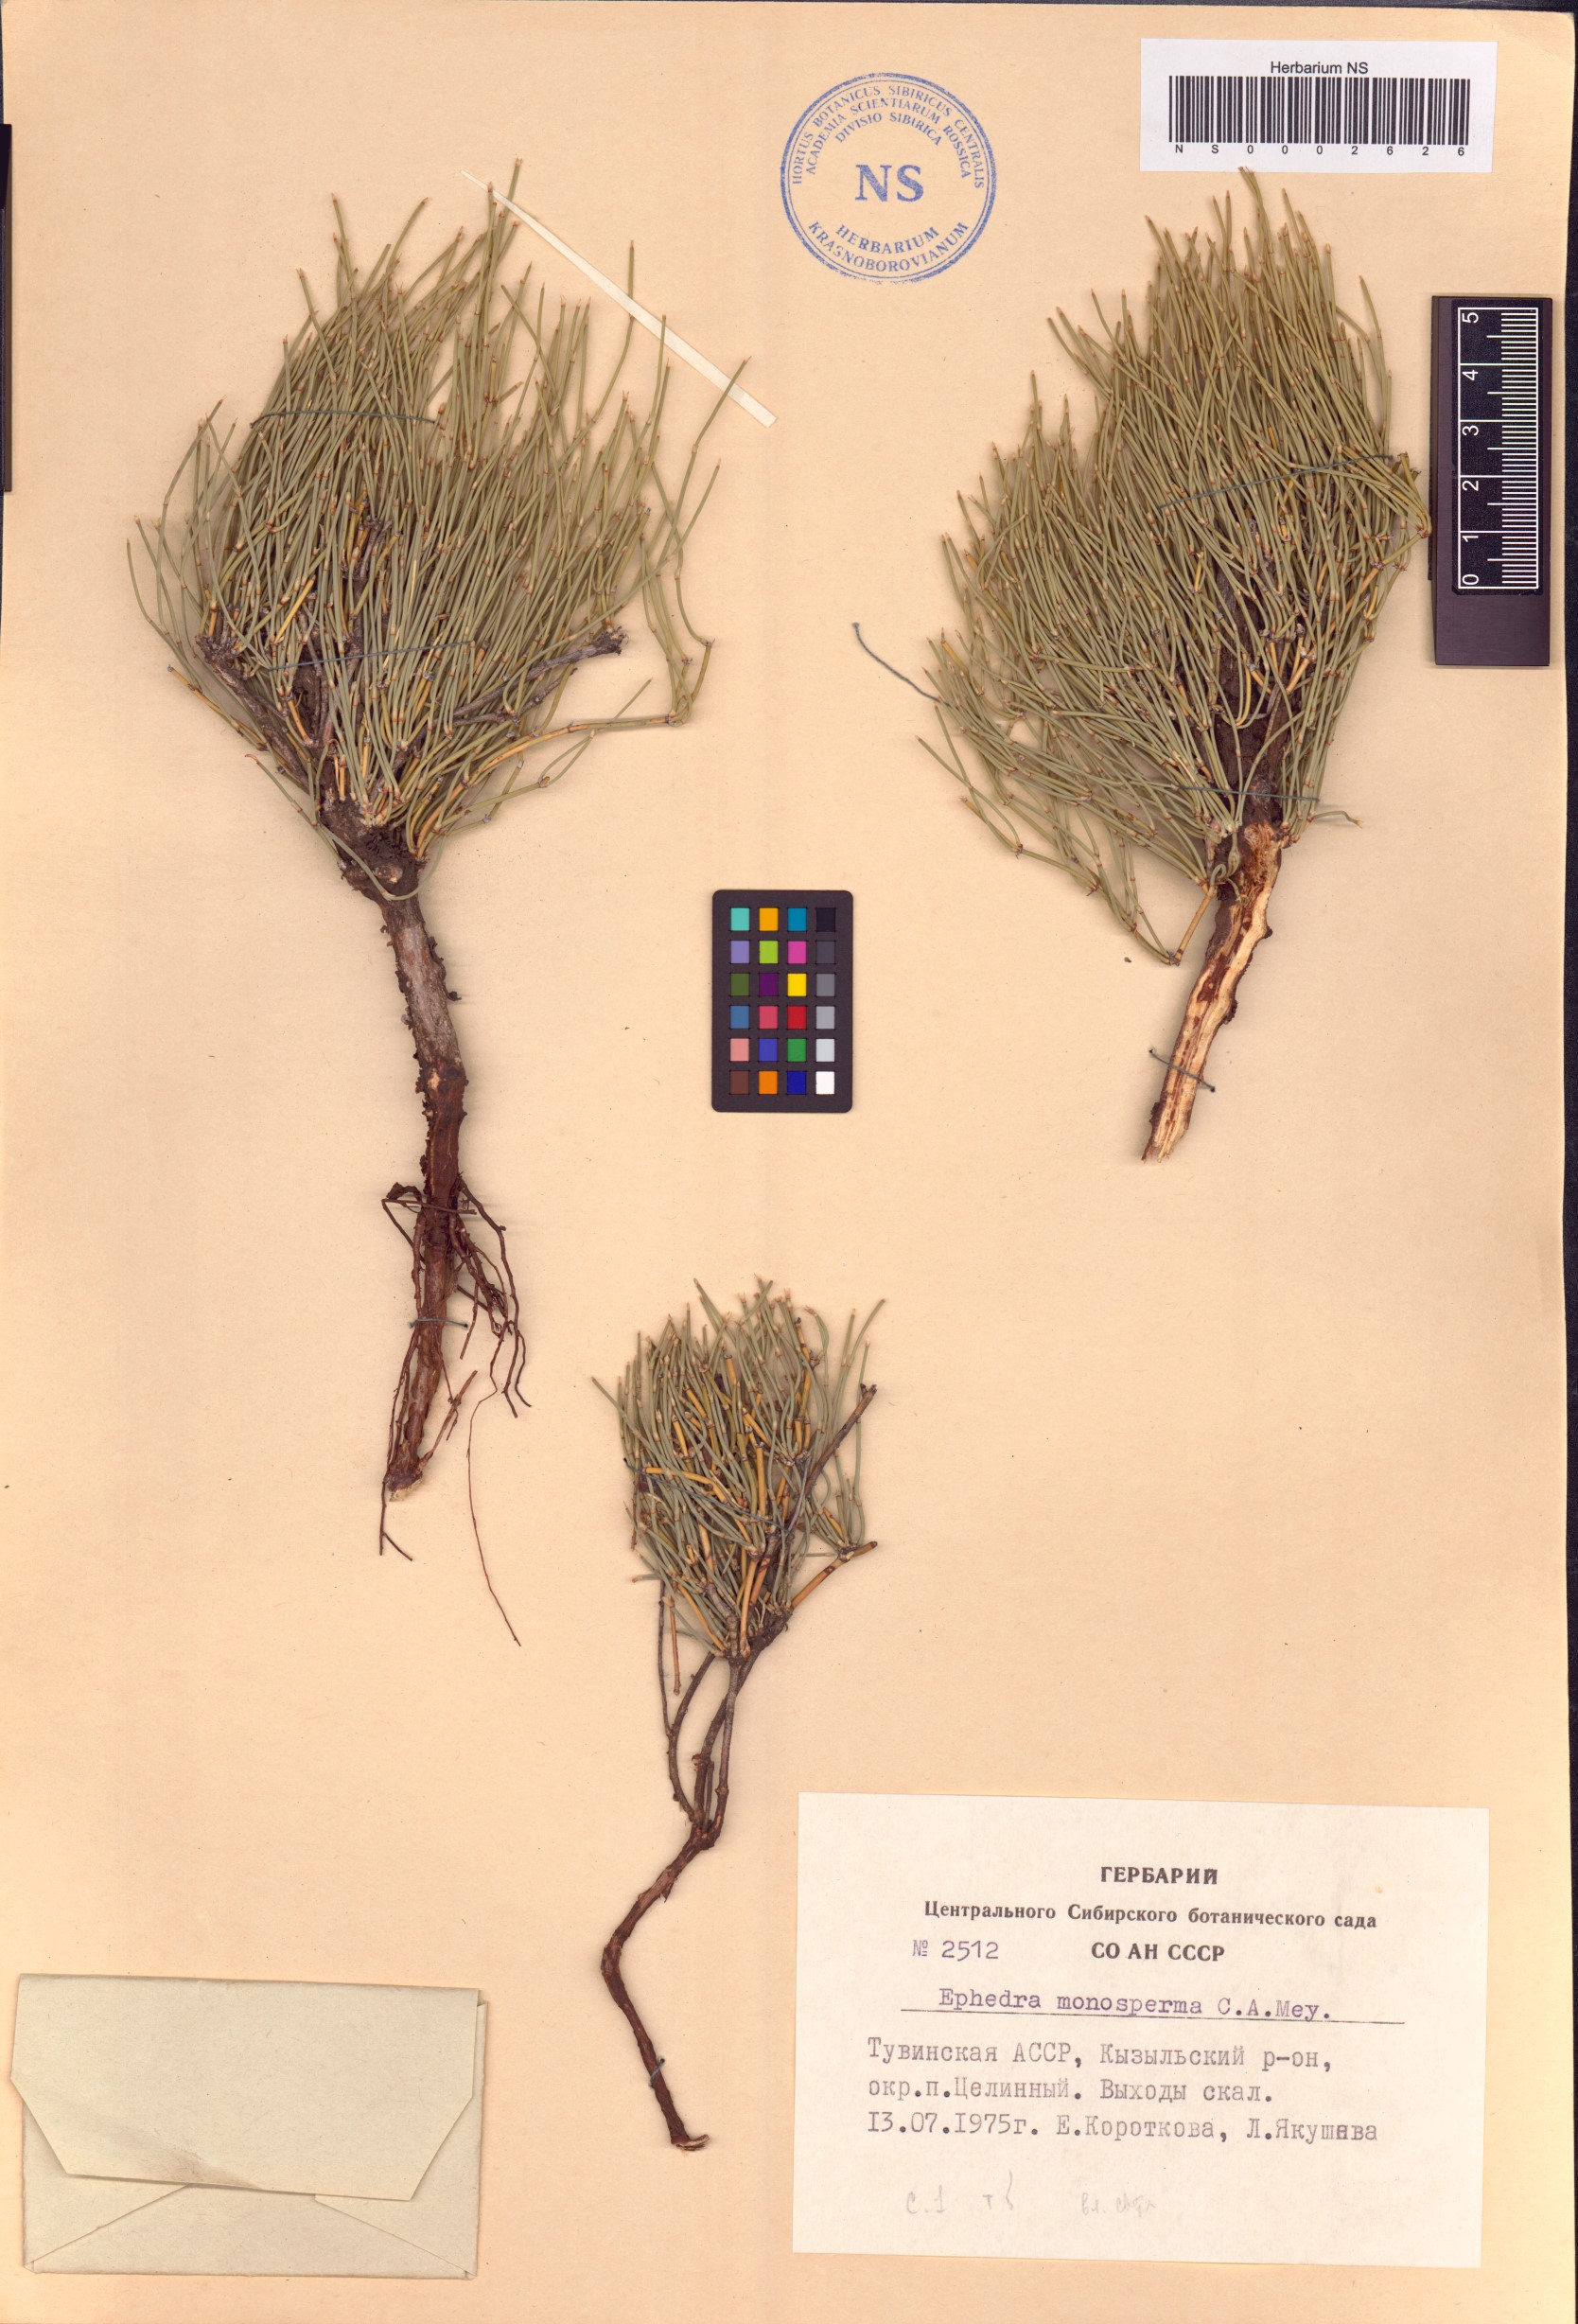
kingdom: Plantae
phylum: Tracheophyta
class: Gnetopsida
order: Ephedrales
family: Ephedraceae
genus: Ephedra
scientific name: Ephedra monosperma
